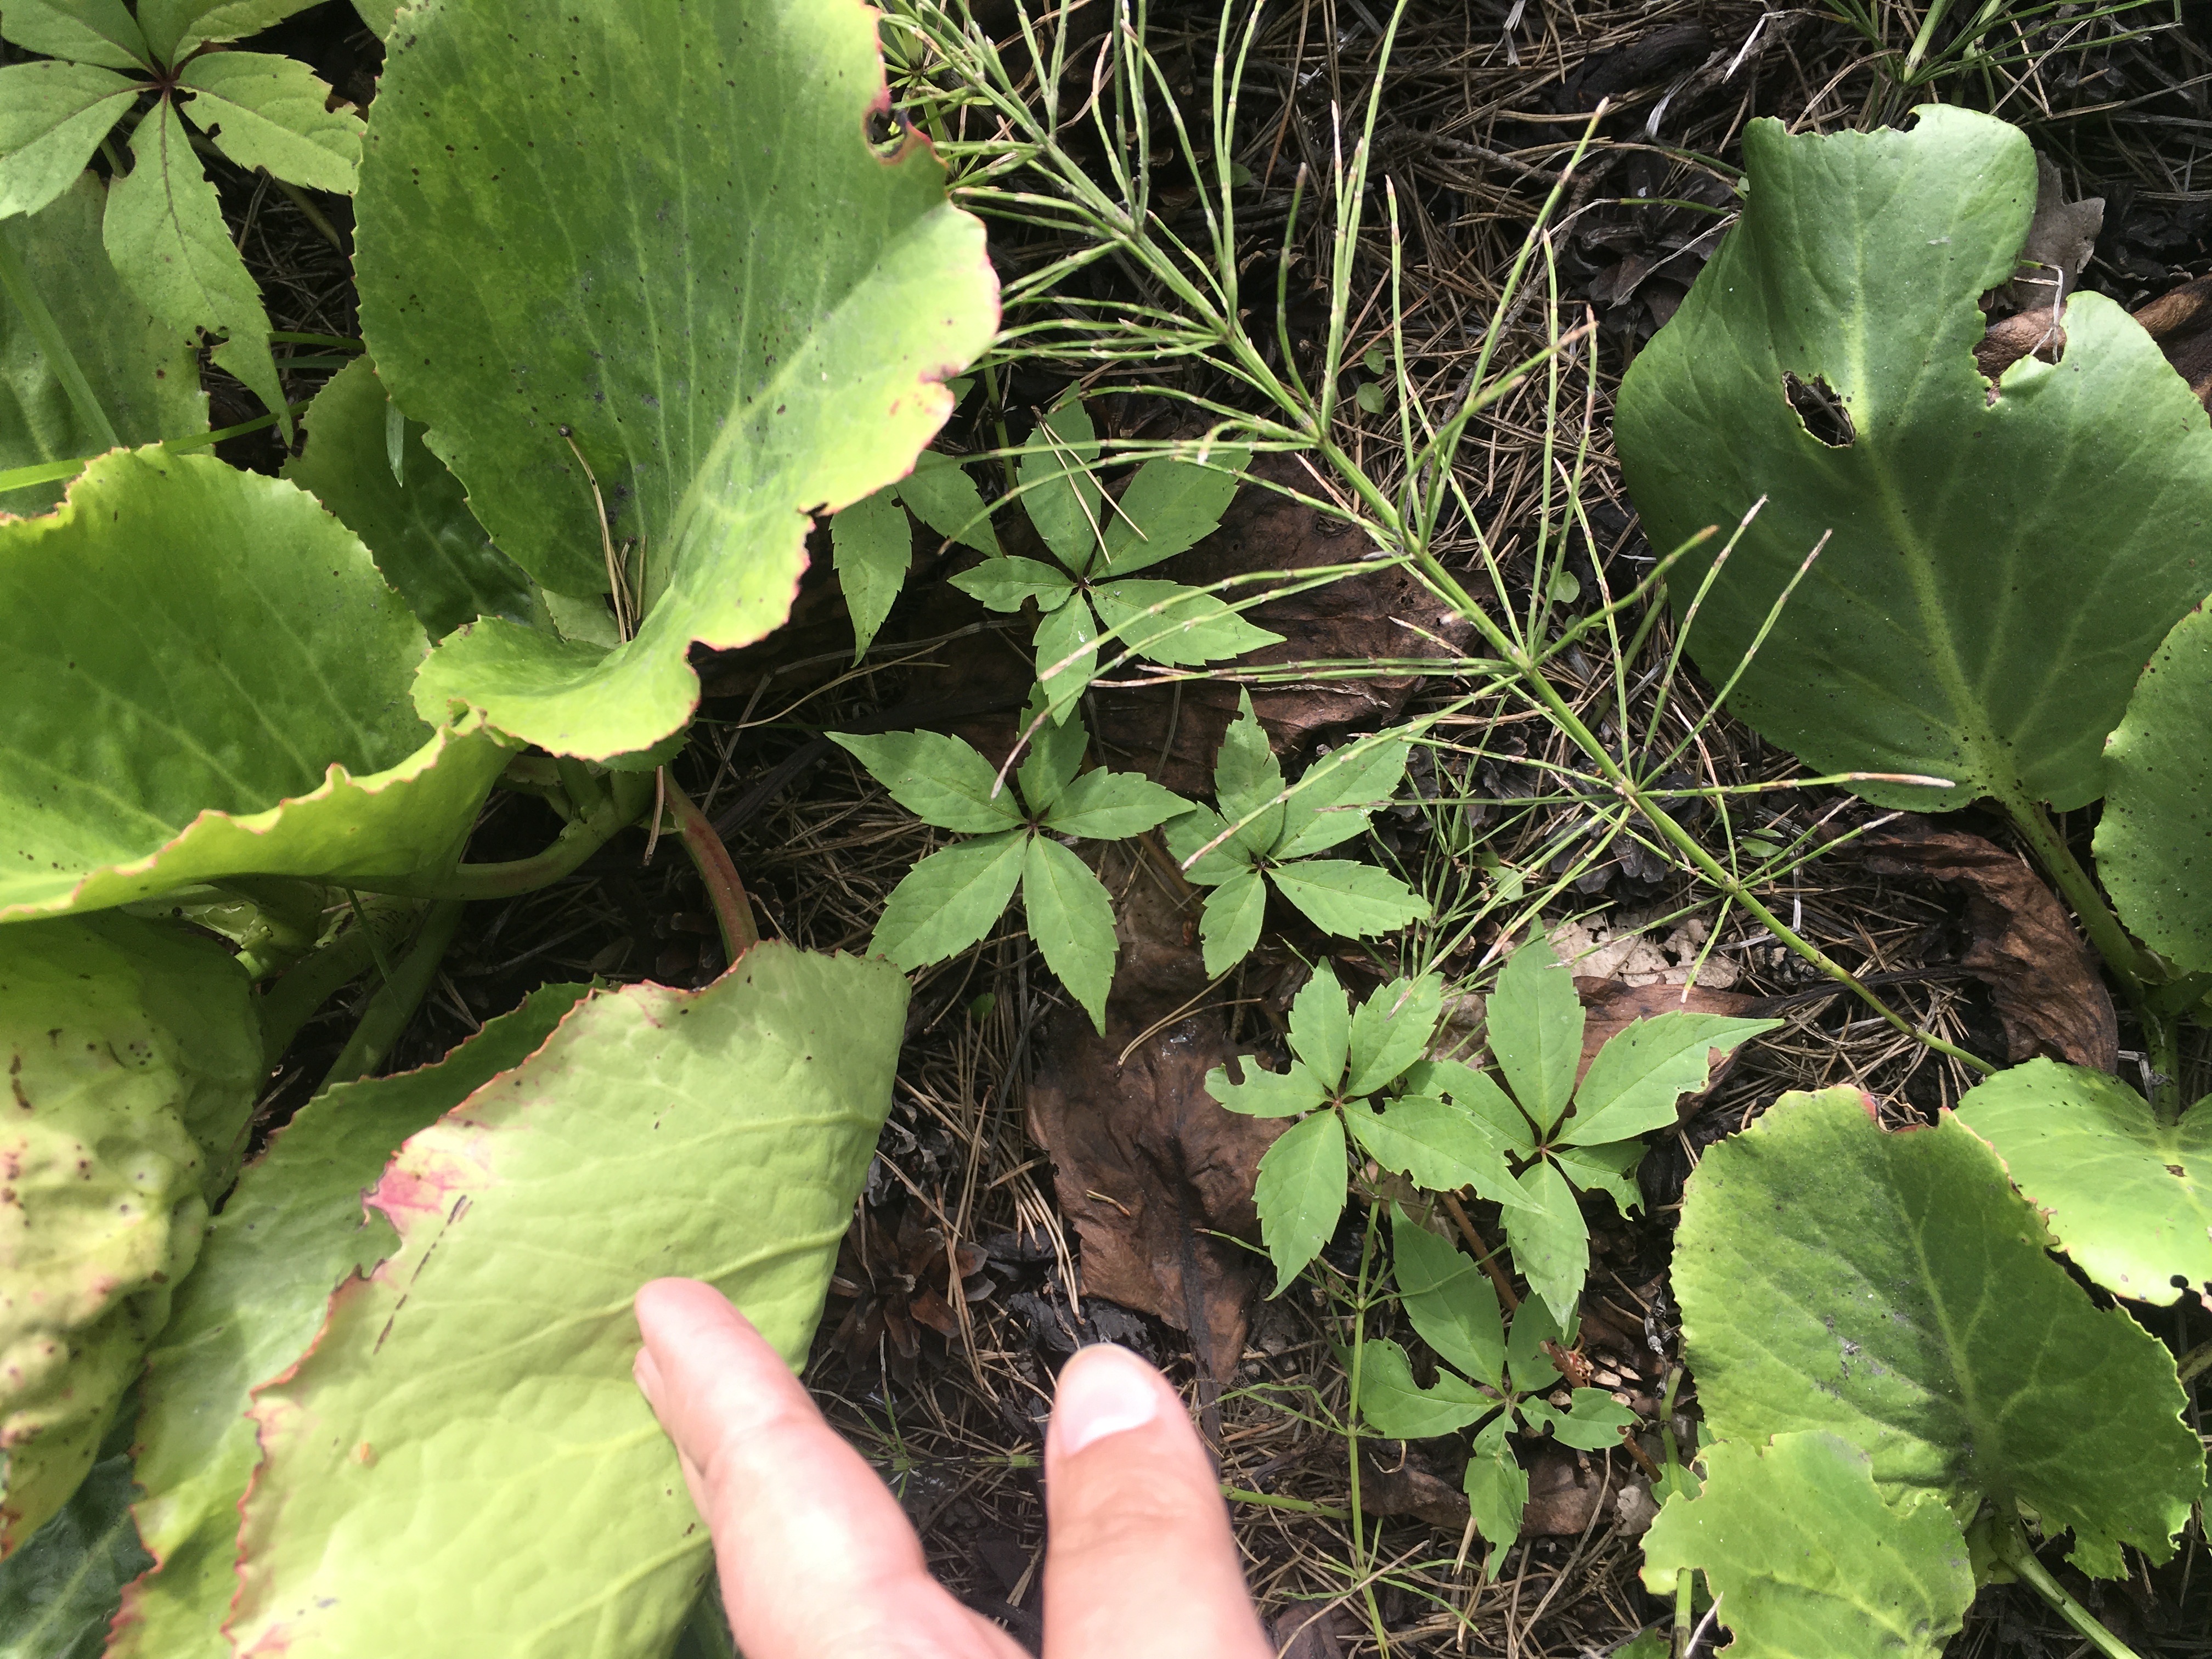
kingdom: Plantae
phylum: Tracheophyta
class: Magnoliopsida
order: Vitales
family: Vitaceae
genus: Parthenocissus
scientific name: Parthenocissus quinquefolia
